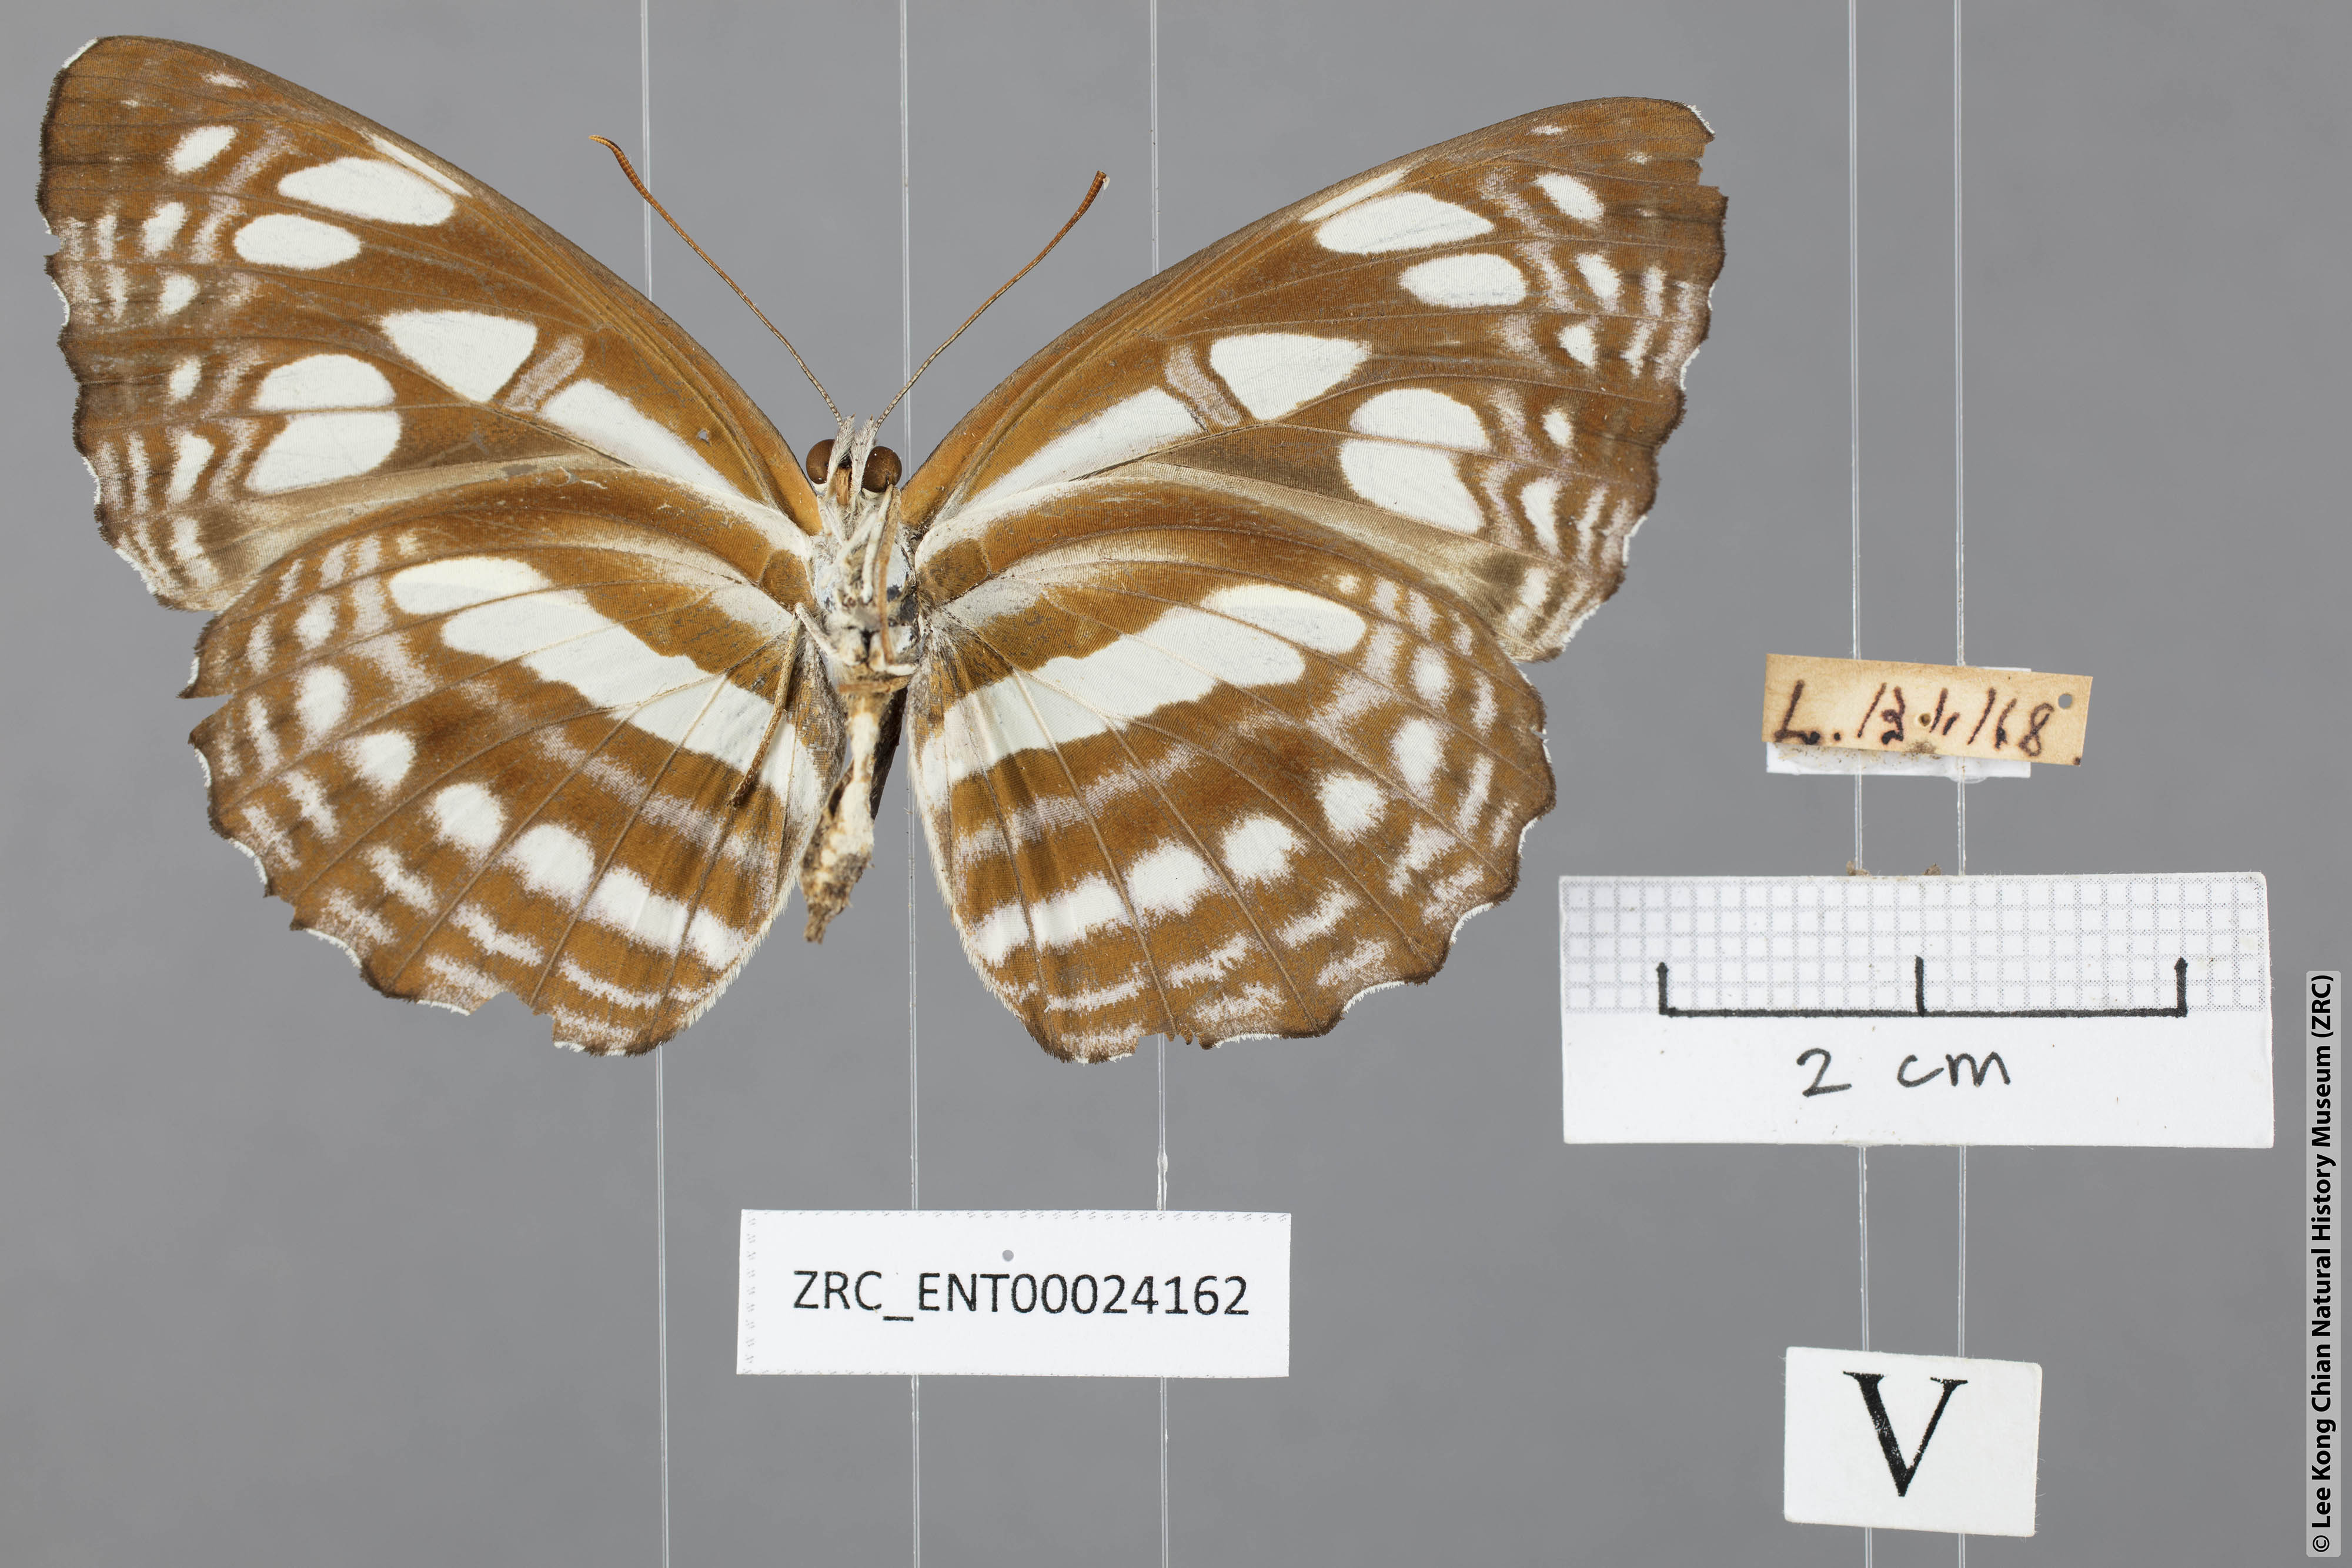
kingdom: Animalia
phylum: Arthropoda
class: Insecta
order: Lepidoptera
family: Nymphalidae
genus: Phaedyma
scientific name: Phaedyma columella
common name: Short banded sailer
